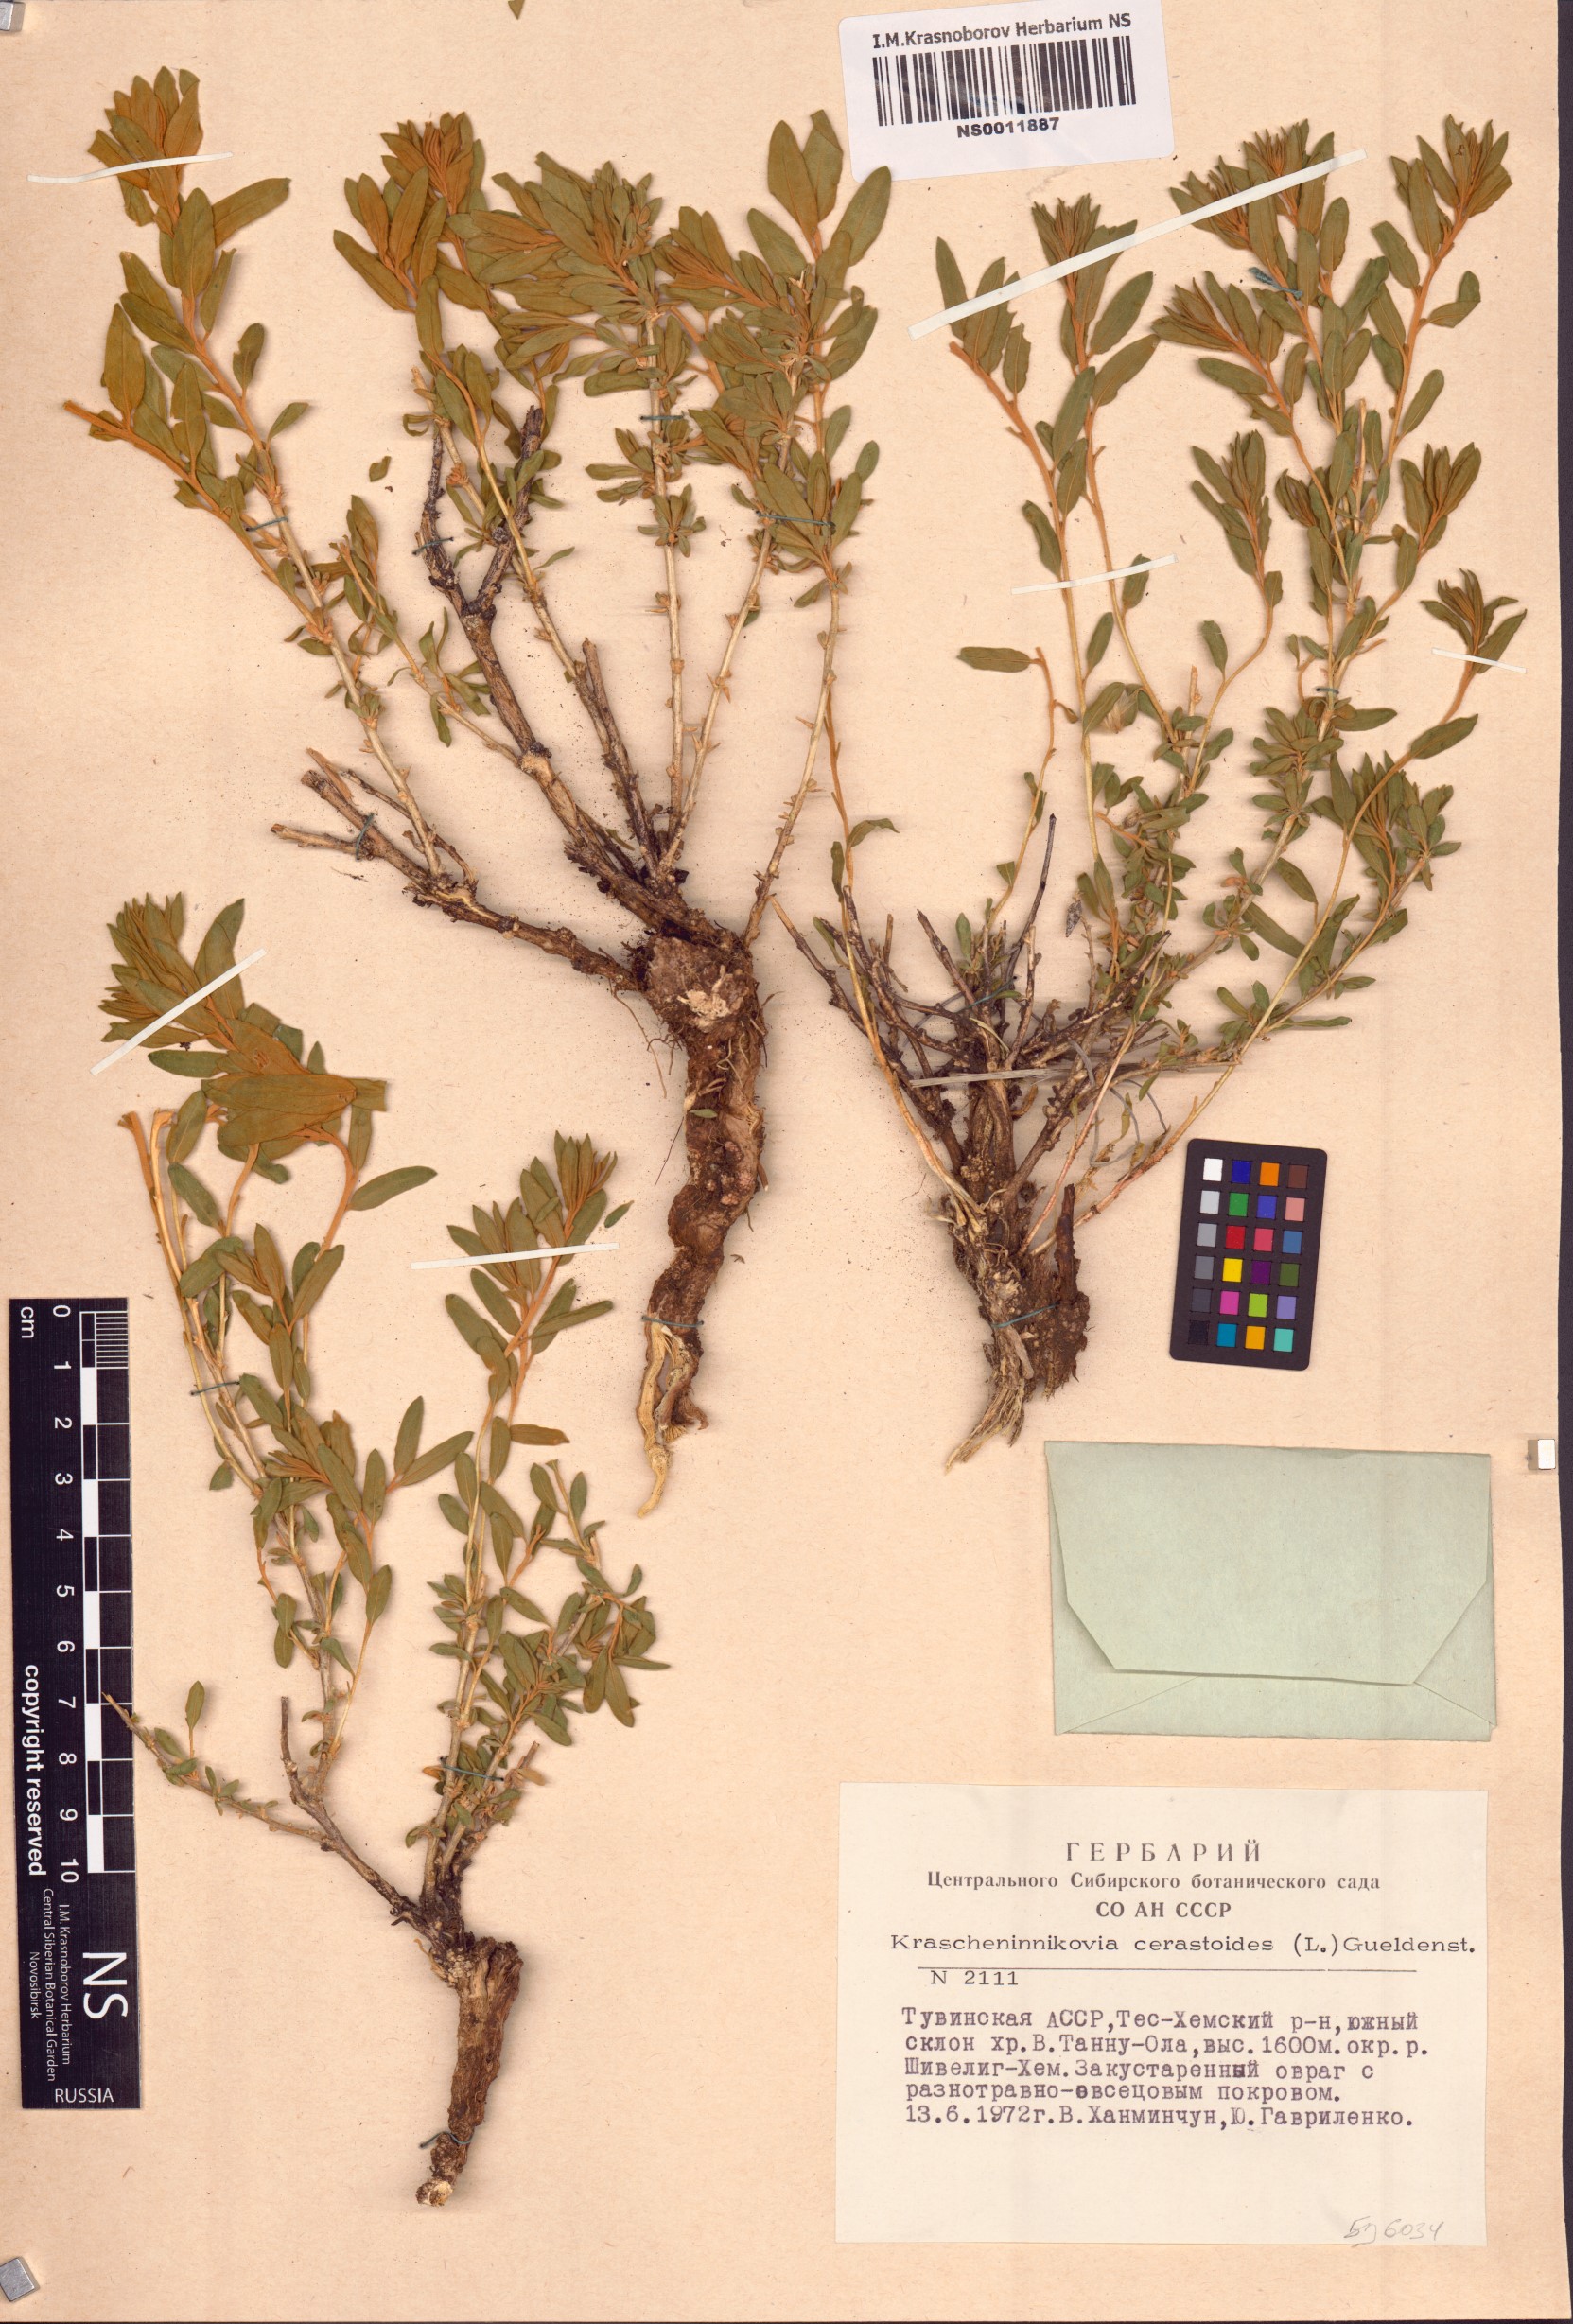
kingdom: Plantae
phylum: Tracheophyta
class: Magnoliopsida
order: Caryophyllales
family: Amaranthaceae
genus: Krascheninnikovia
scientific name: Krascheninnikovia ceratoides
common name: Pamirian winterfat
